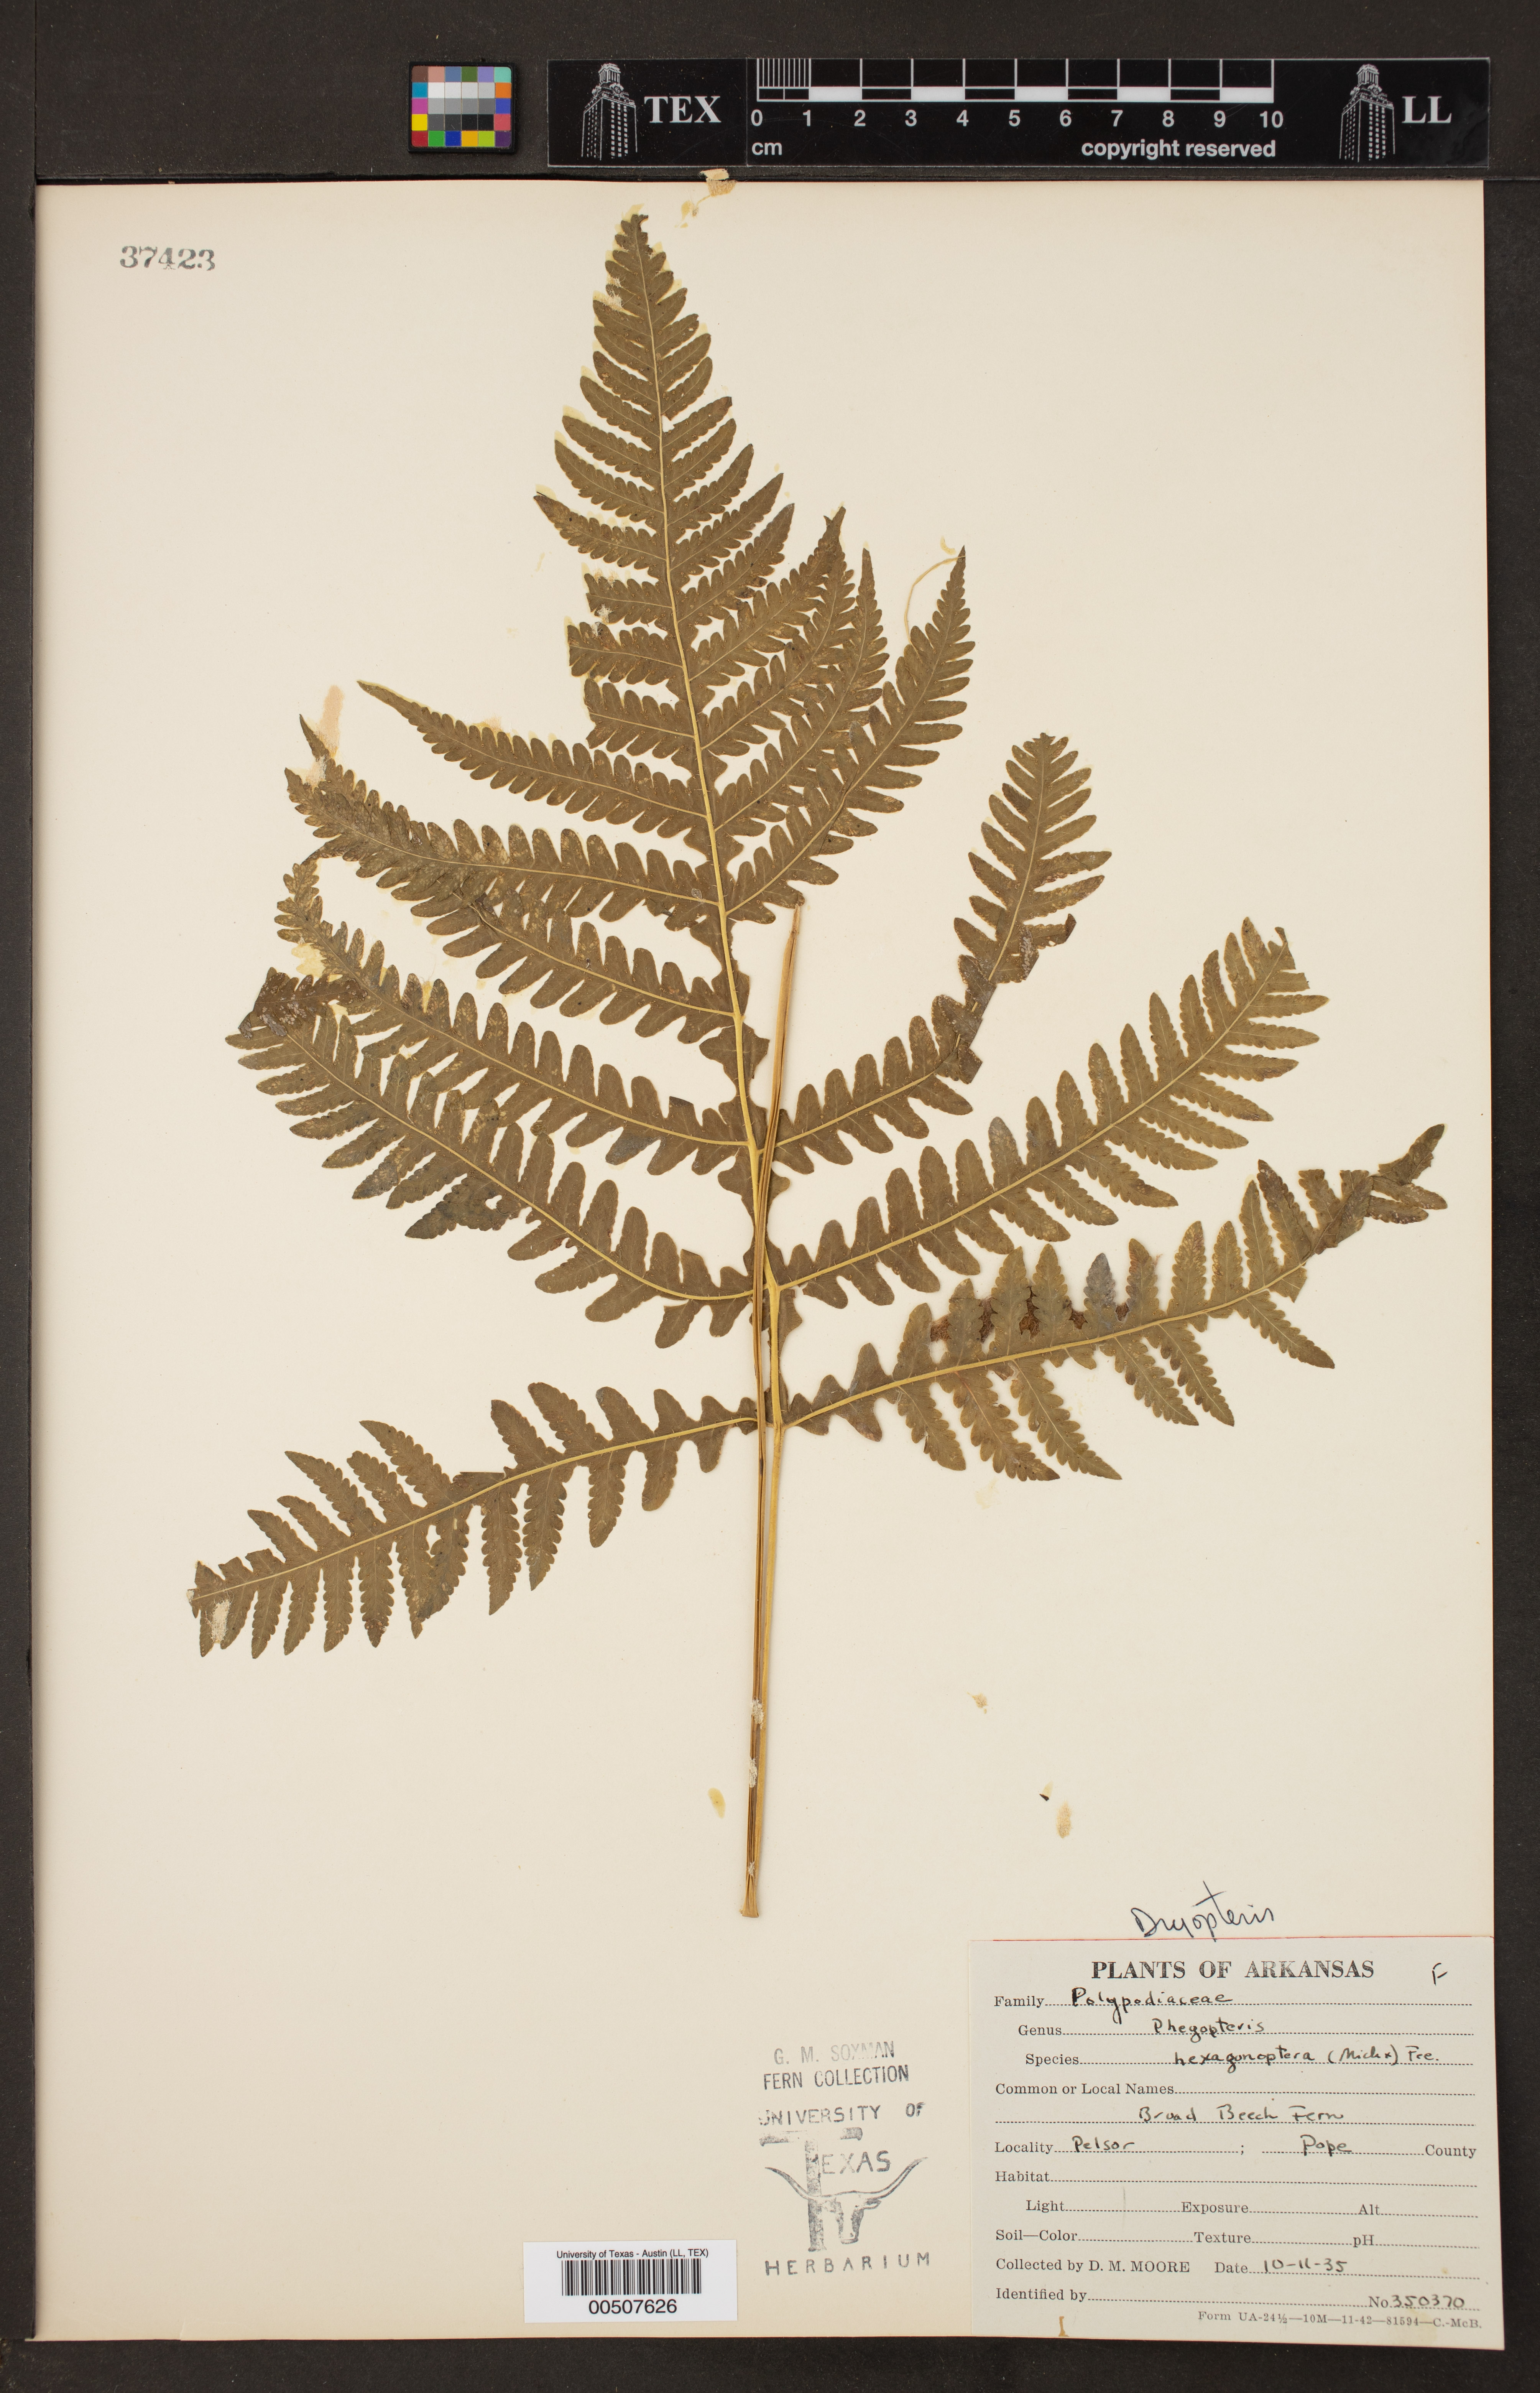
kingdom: Plantae
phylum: Tracheophyta
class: Polypodiopsida
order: Polypodiales
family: Thelypteridaceae
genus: Phegopteris
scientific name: Phegopteris hexagonoptera
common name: Broad beech fern
